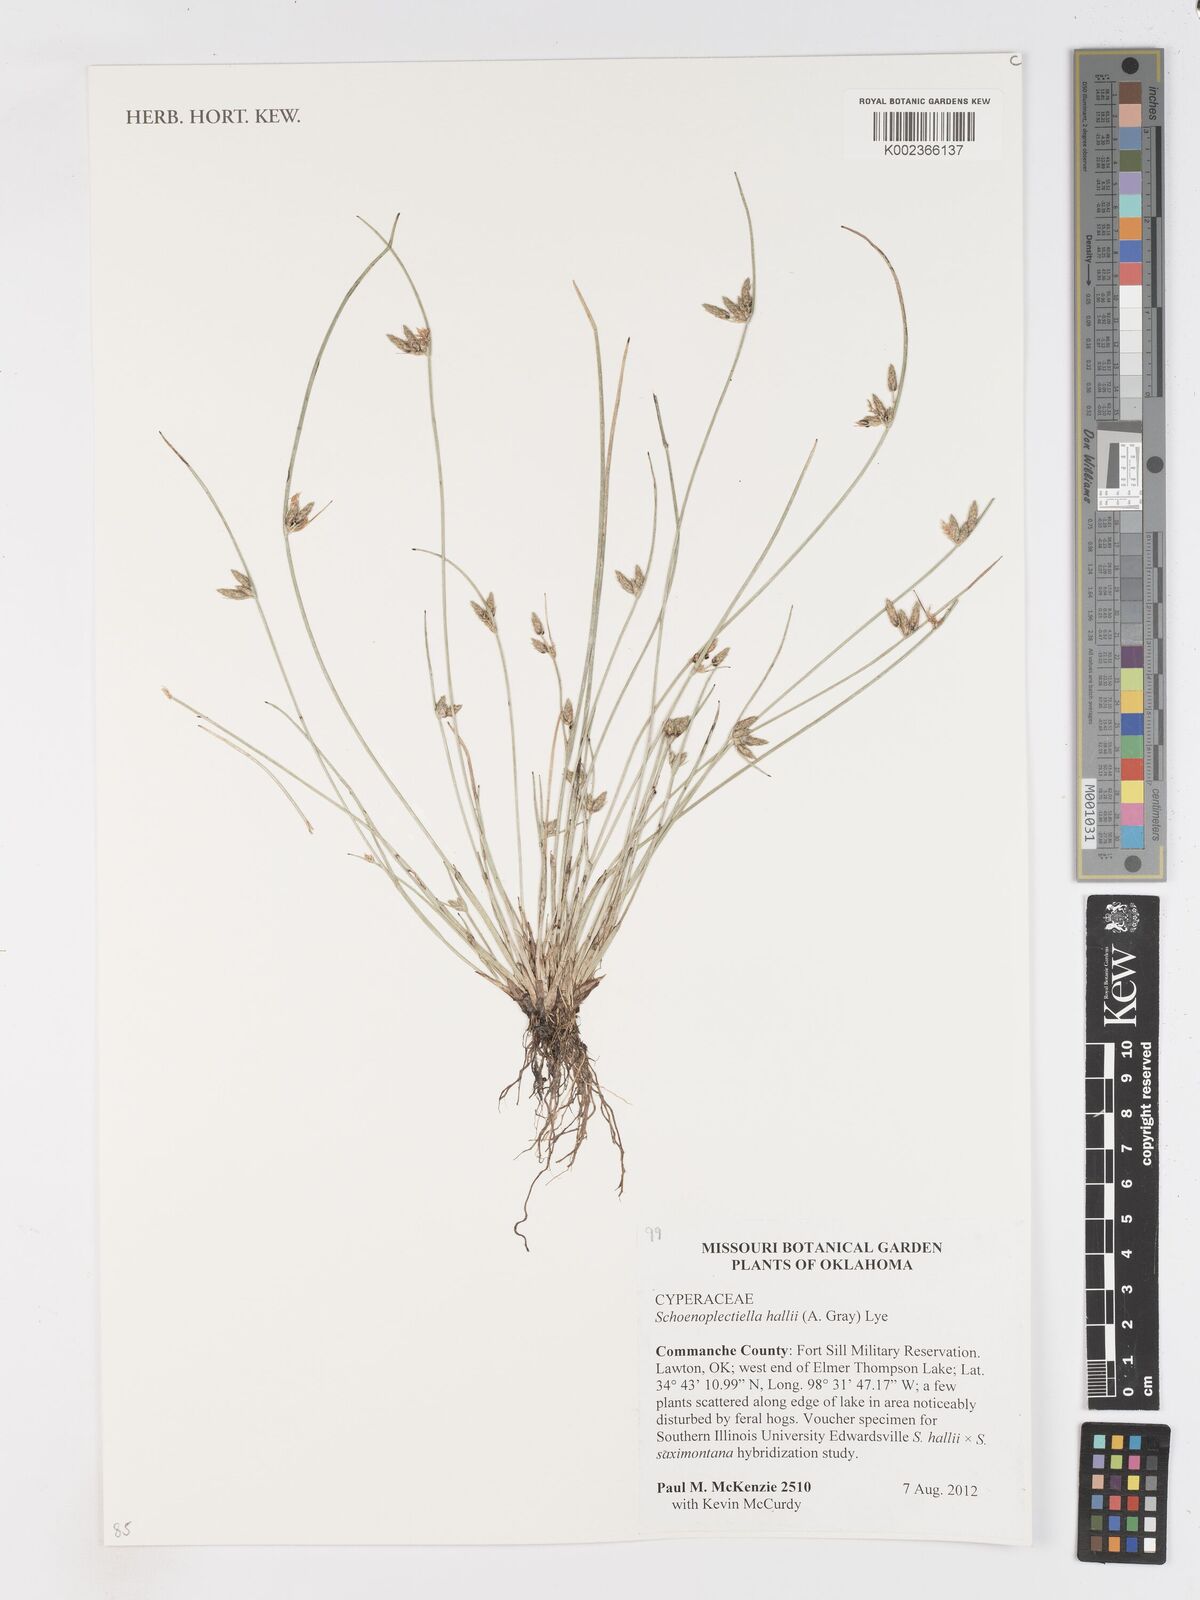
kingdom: Plantae
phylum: Tracheophyta
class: Liliopsida
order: Poales
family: Cyperaceae
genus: Schoenoplectiella
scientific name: Schoenoplectiella hallii
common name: Hall's bullrush
